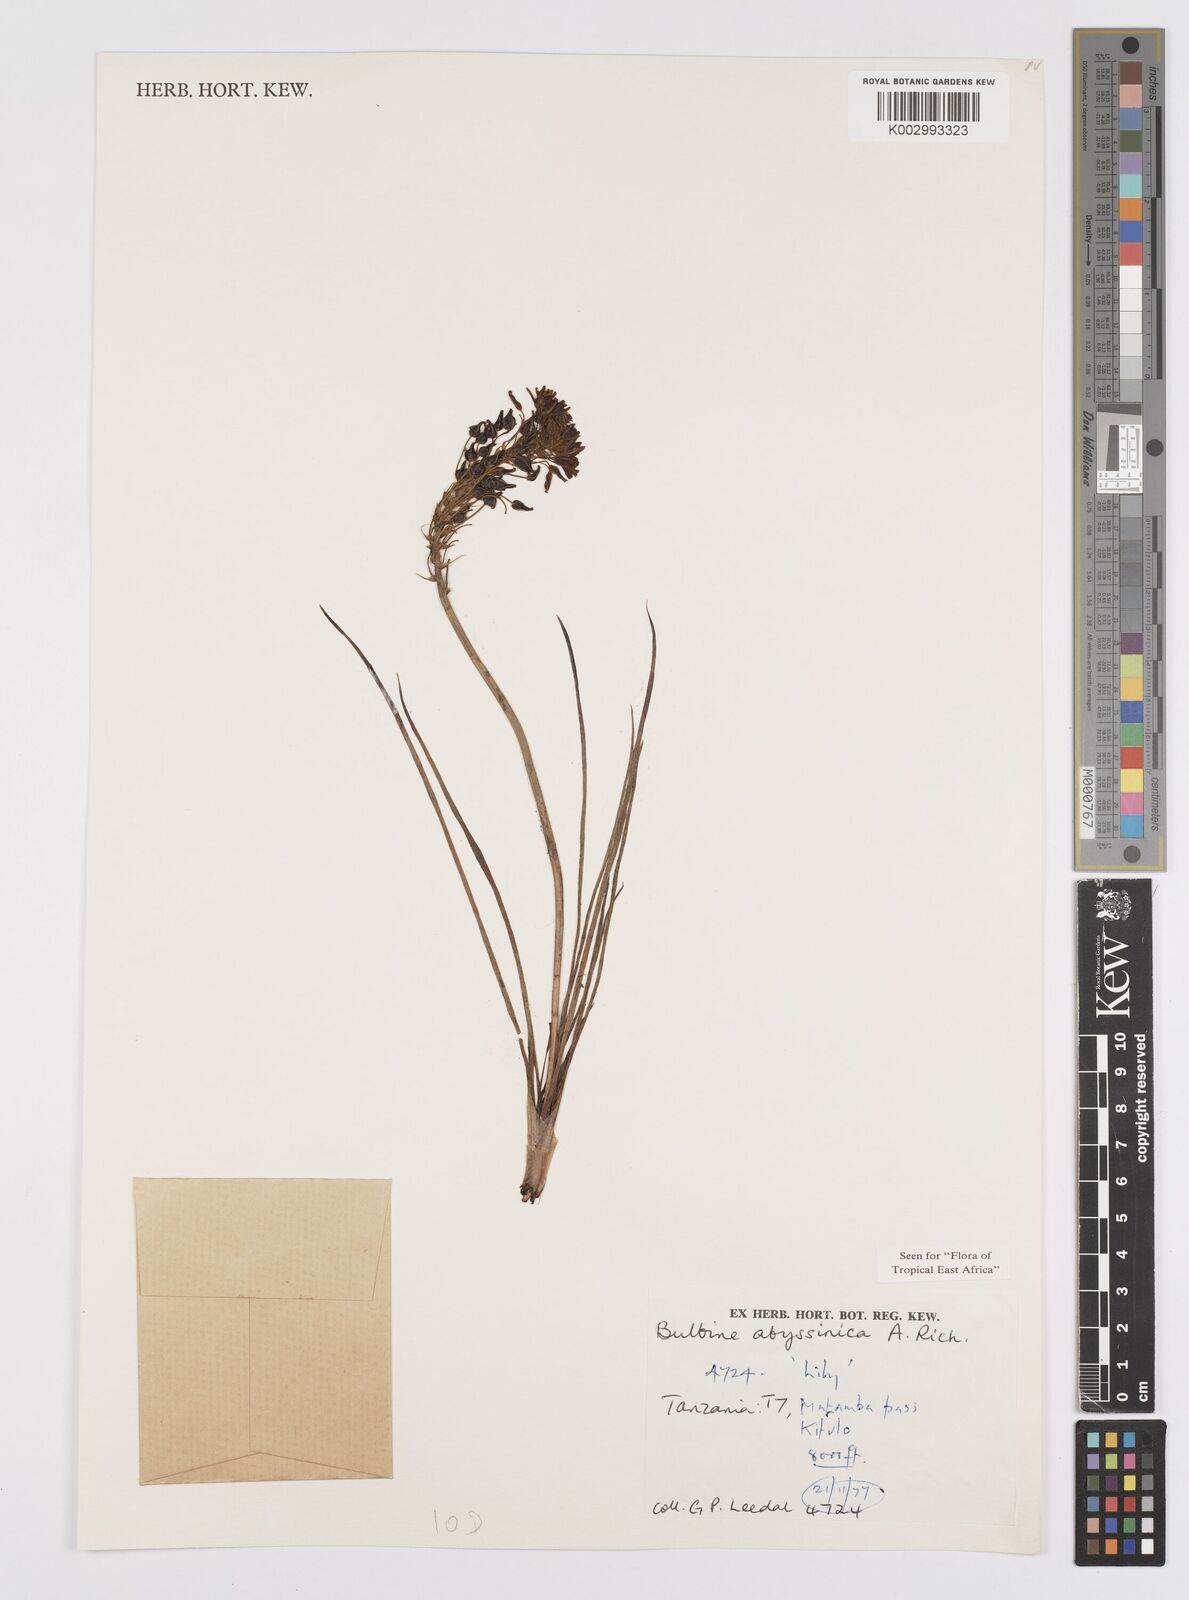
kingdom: Plantae
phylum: Tracheophyta
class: Liliopsida
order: Asparagales
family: Asphodelaceae
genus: Bulbine
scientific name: Bulbine abyssinica
